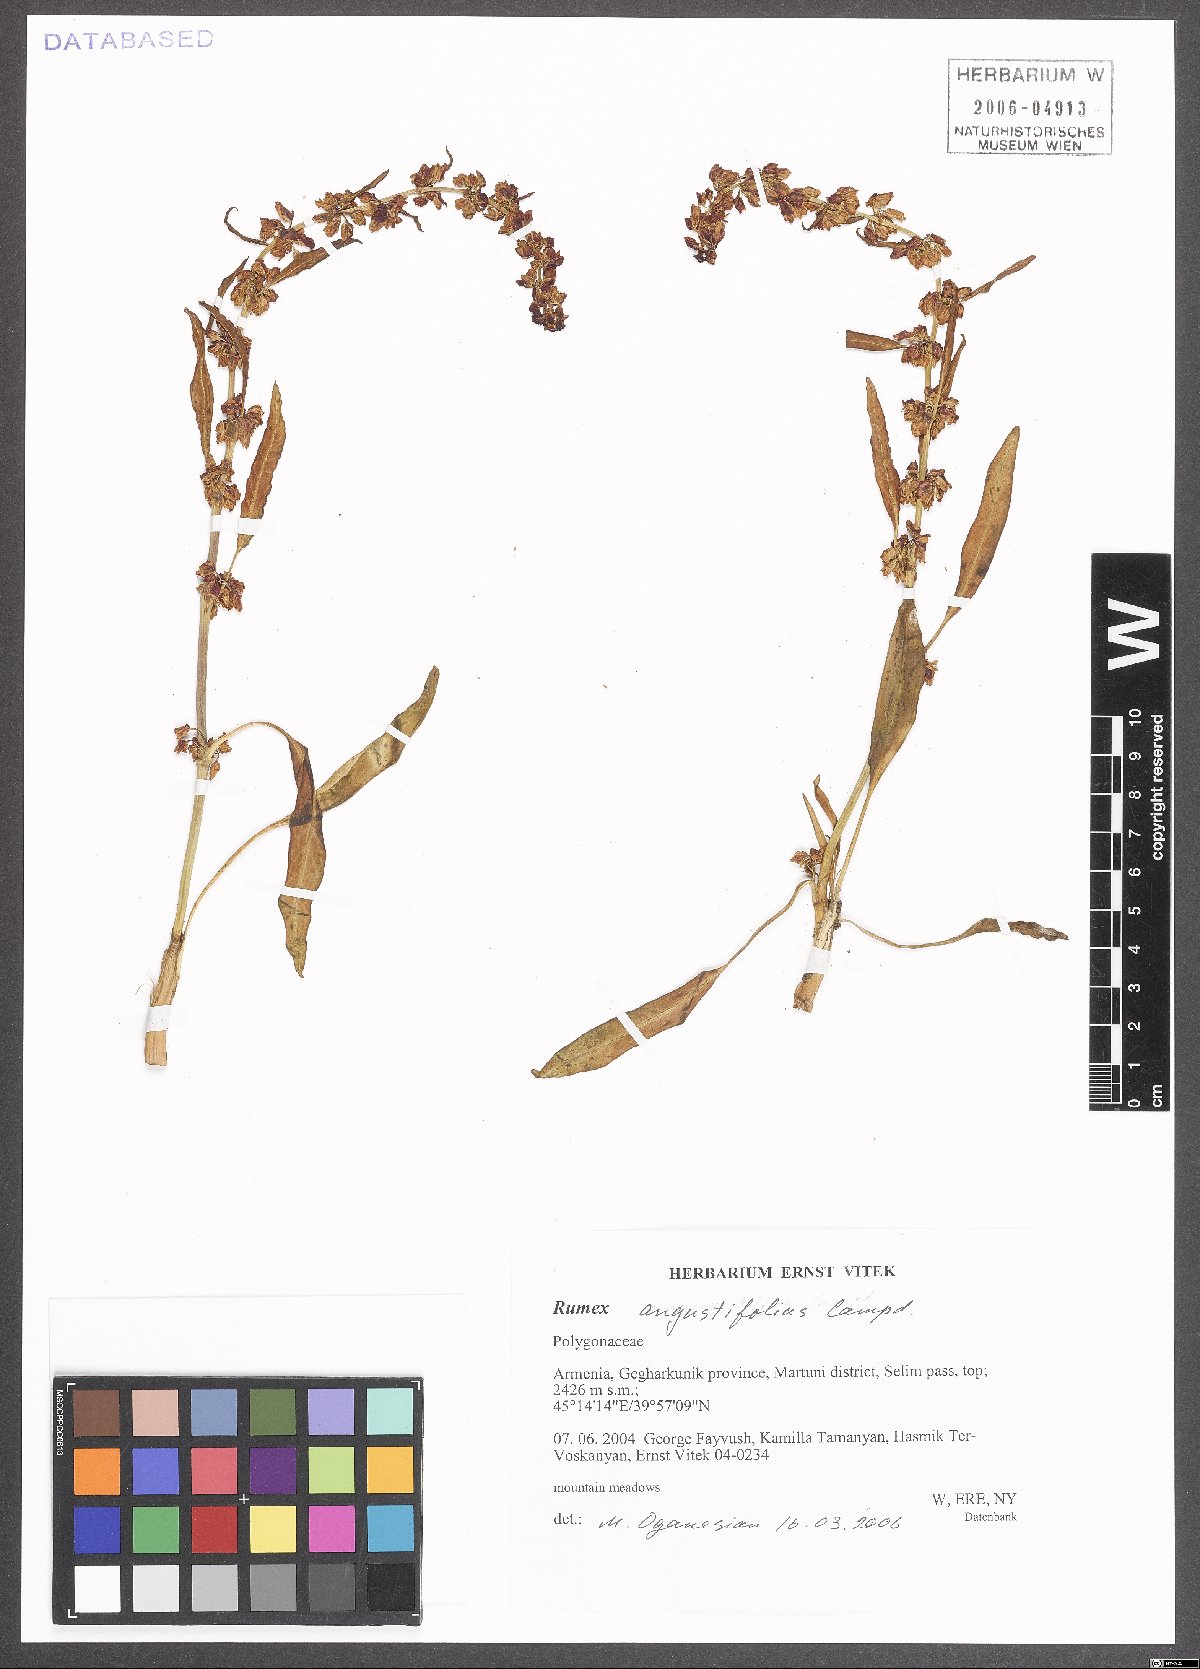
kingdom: Plantae
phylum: Tracheophyta
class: Magnoliopsida
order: Caryophyllales
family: Polygonaceae
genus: Rumex
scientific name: Rumex angustifolius
